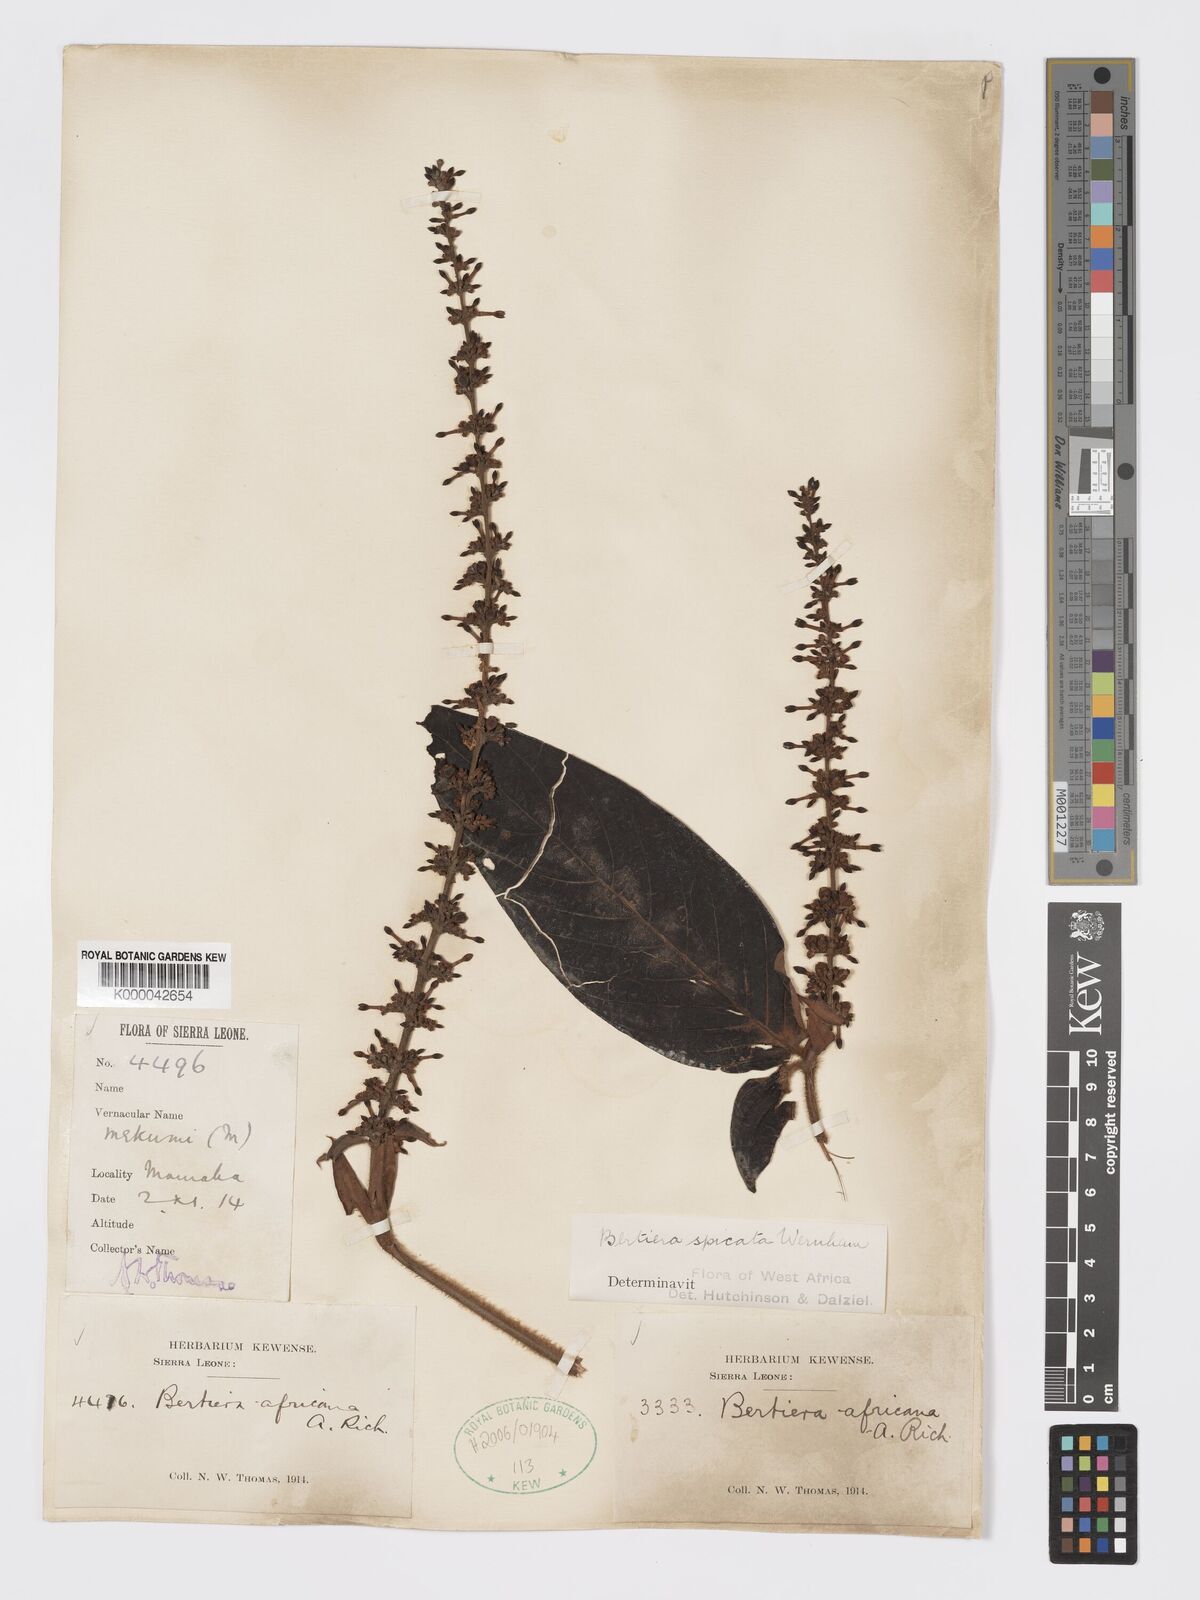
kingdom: Plantae
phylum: Tracheophyta
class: Magnoliopsida
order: Gentianales
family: Rubiaceae
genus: Bertiera
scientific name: Bertiera
